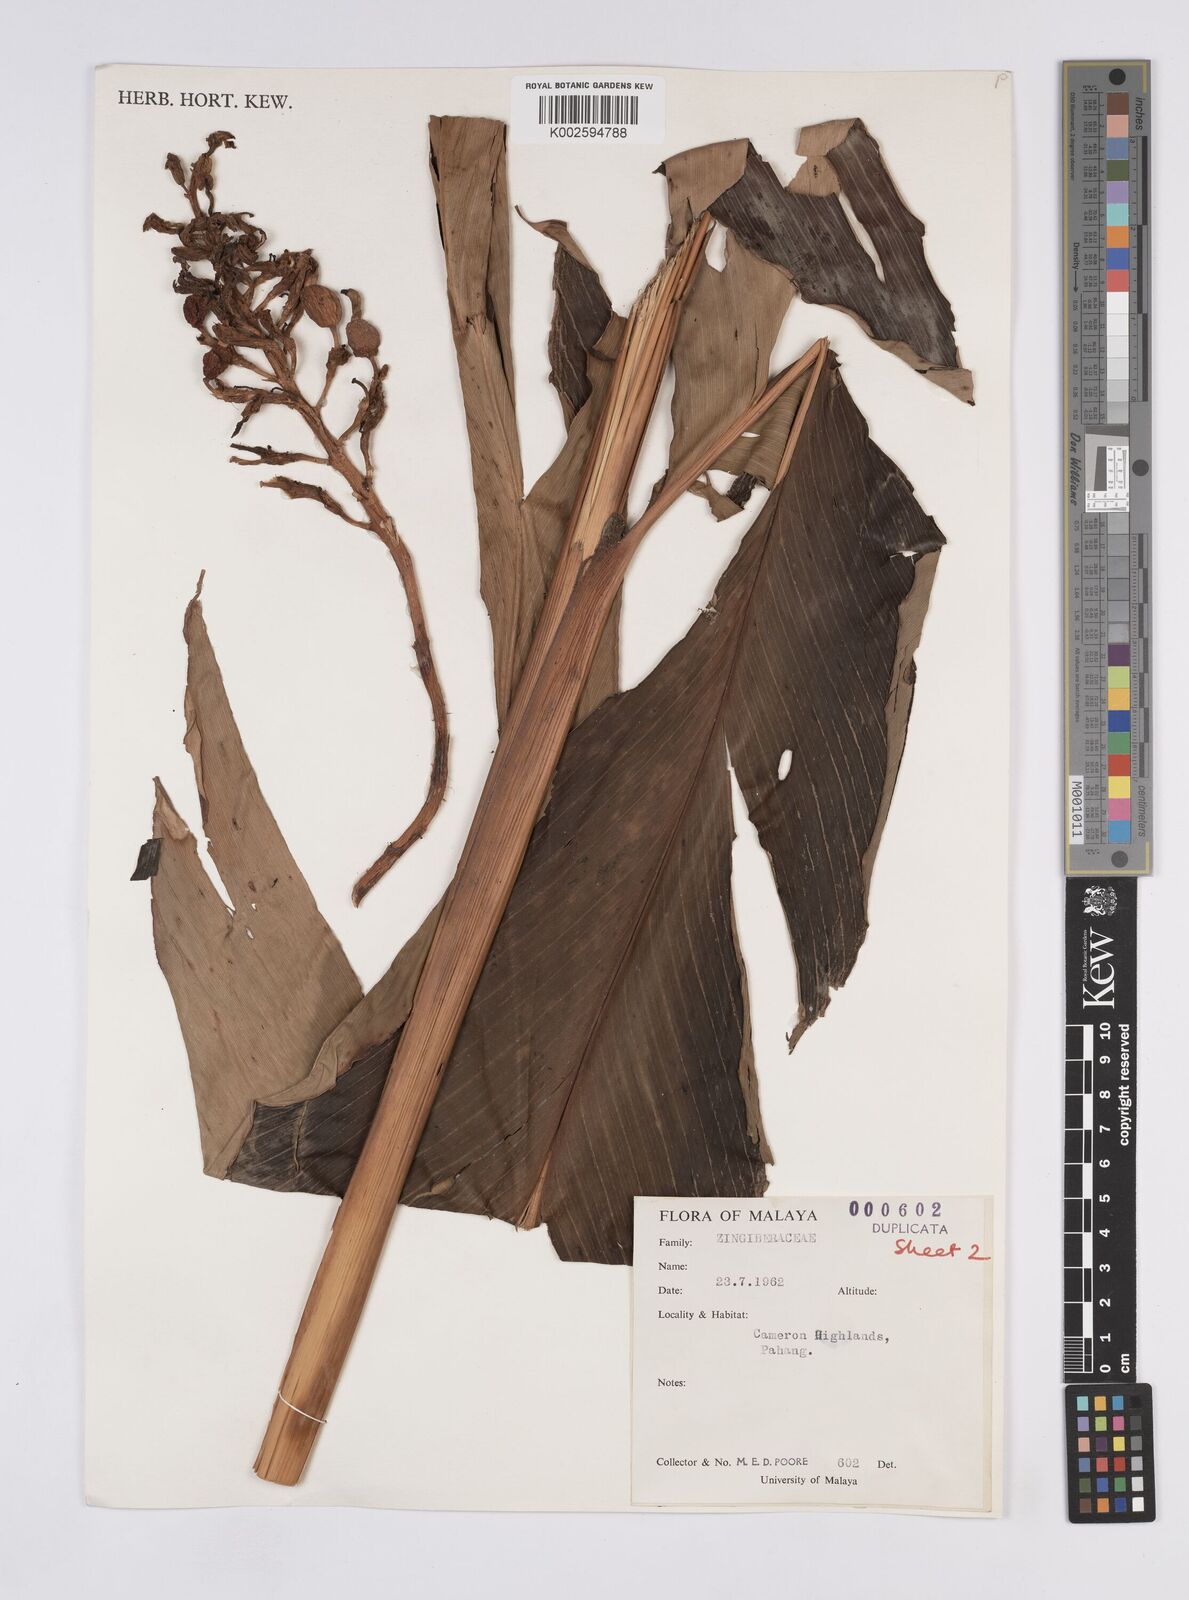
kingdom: Plantae
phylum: Tracheophyta
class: Liliopsida
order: Zingiberales
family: Zingiberaceae
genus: Geostachys
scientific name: Geostachys megaphylla
